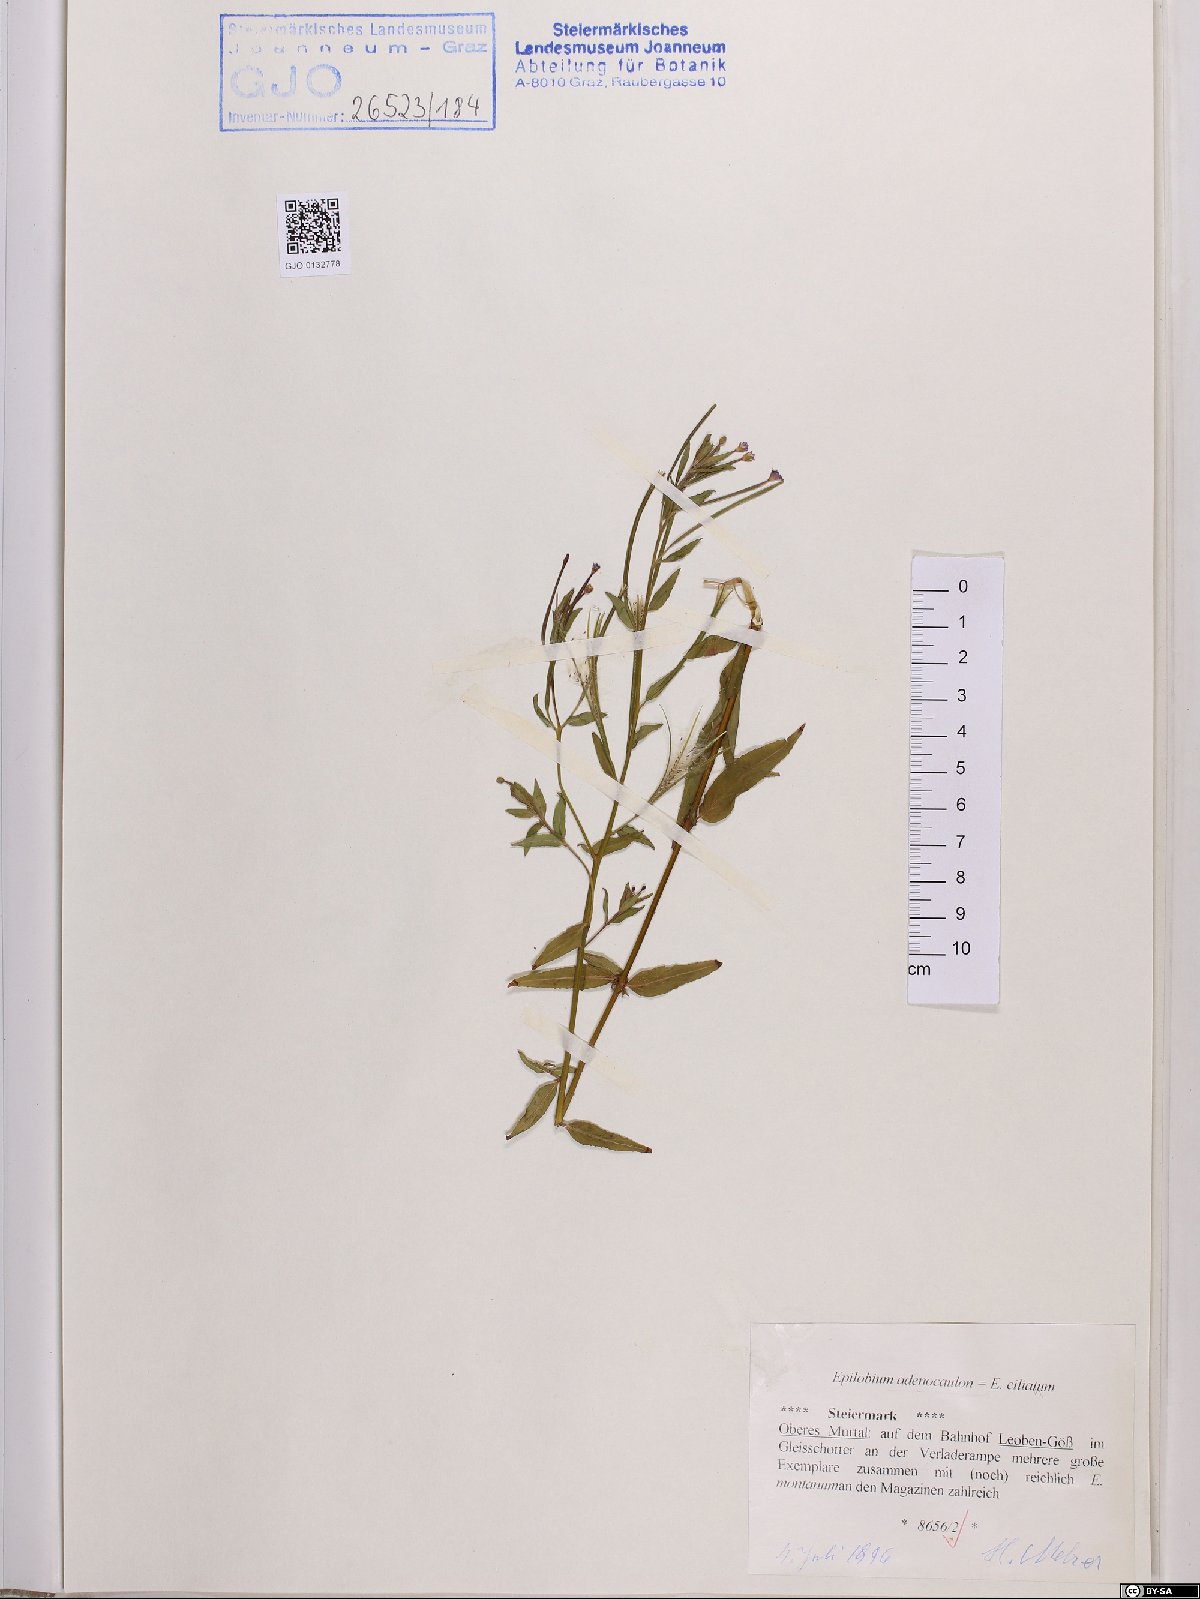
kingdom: Plantae
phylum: Tracheophyta
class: Magnoliopsida
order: Myrtales
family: Onagraceae
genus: Epilobium
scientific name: Epilobium ciliatum
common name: American willowherb
